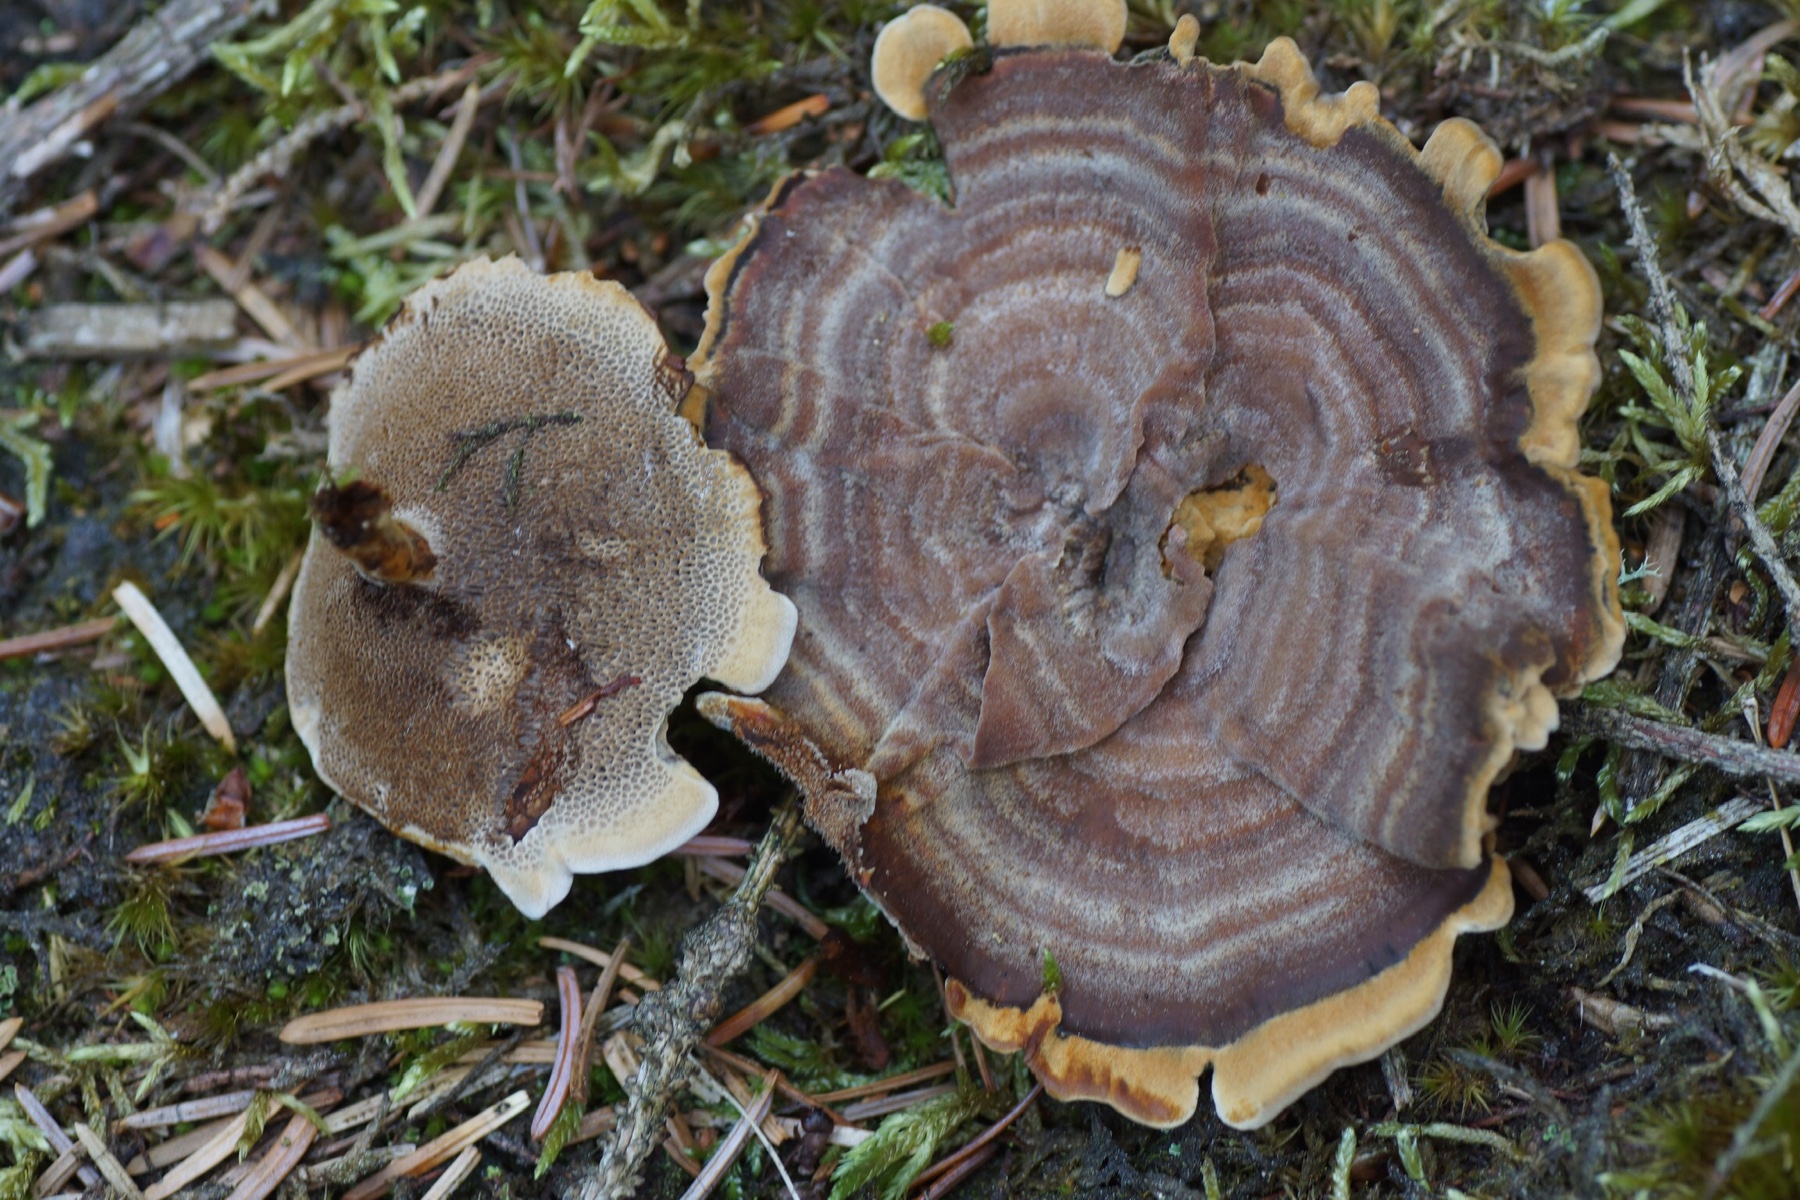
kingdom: Fungi
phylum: Basidiomycota
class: Agaricomycetes
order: Hymenochaetales
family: Hymenochaetaceae
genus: Coltricia
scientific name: Coltricia perennis
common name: almindelig sandporesvamp
